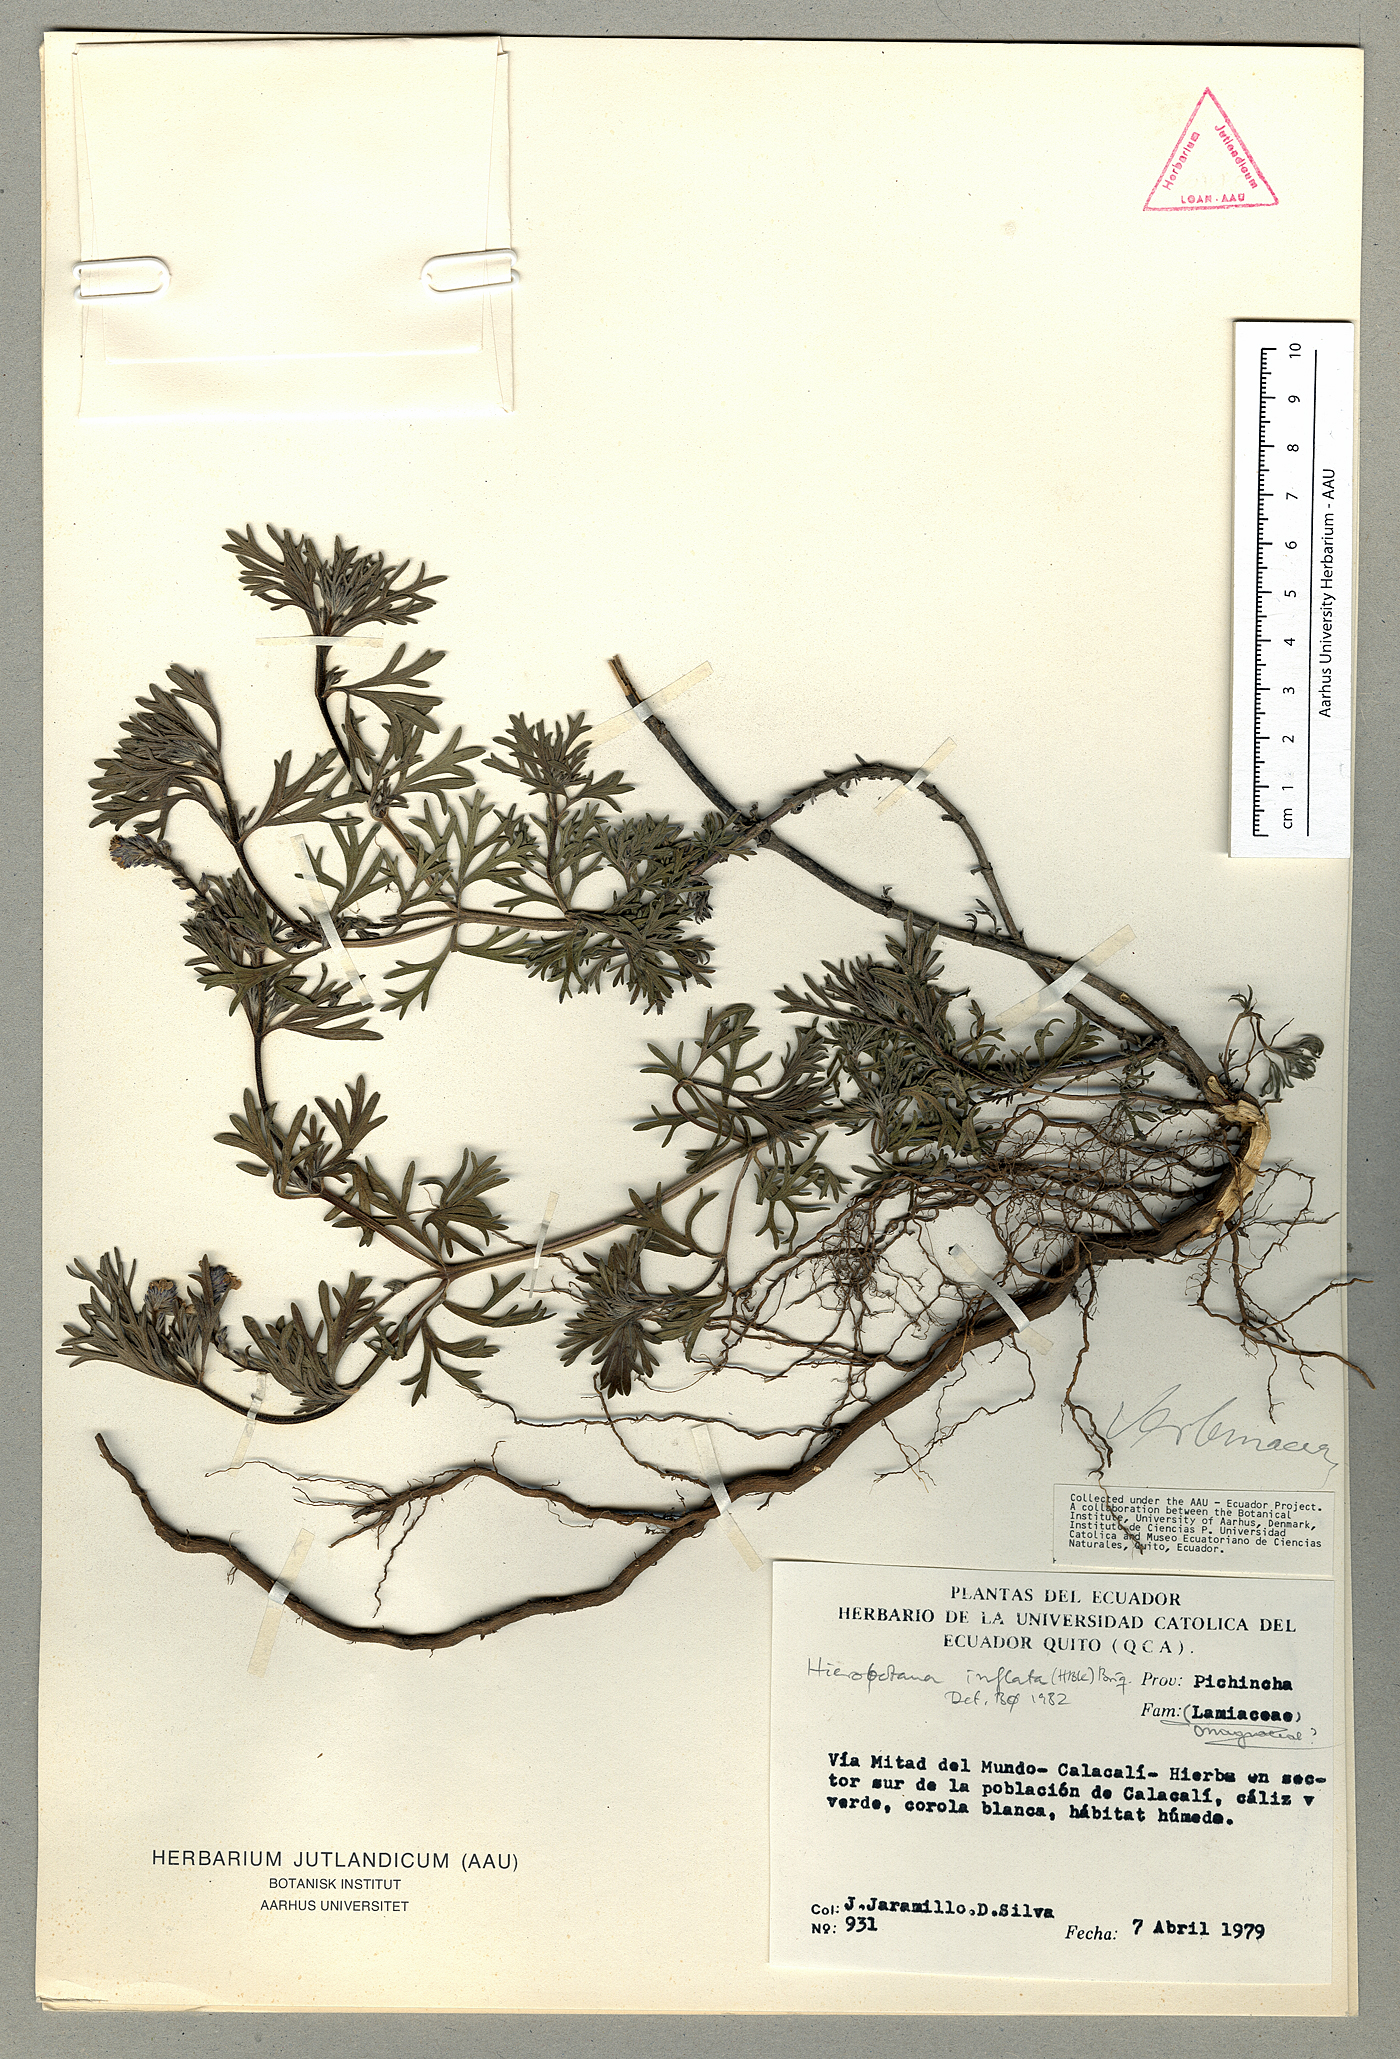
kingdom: Plantae
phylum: Tracheophyta
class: Magnoliopsida
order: Lamiales
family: Verbenaceae
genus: Hierobotana
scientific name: Hierobotana inflata
